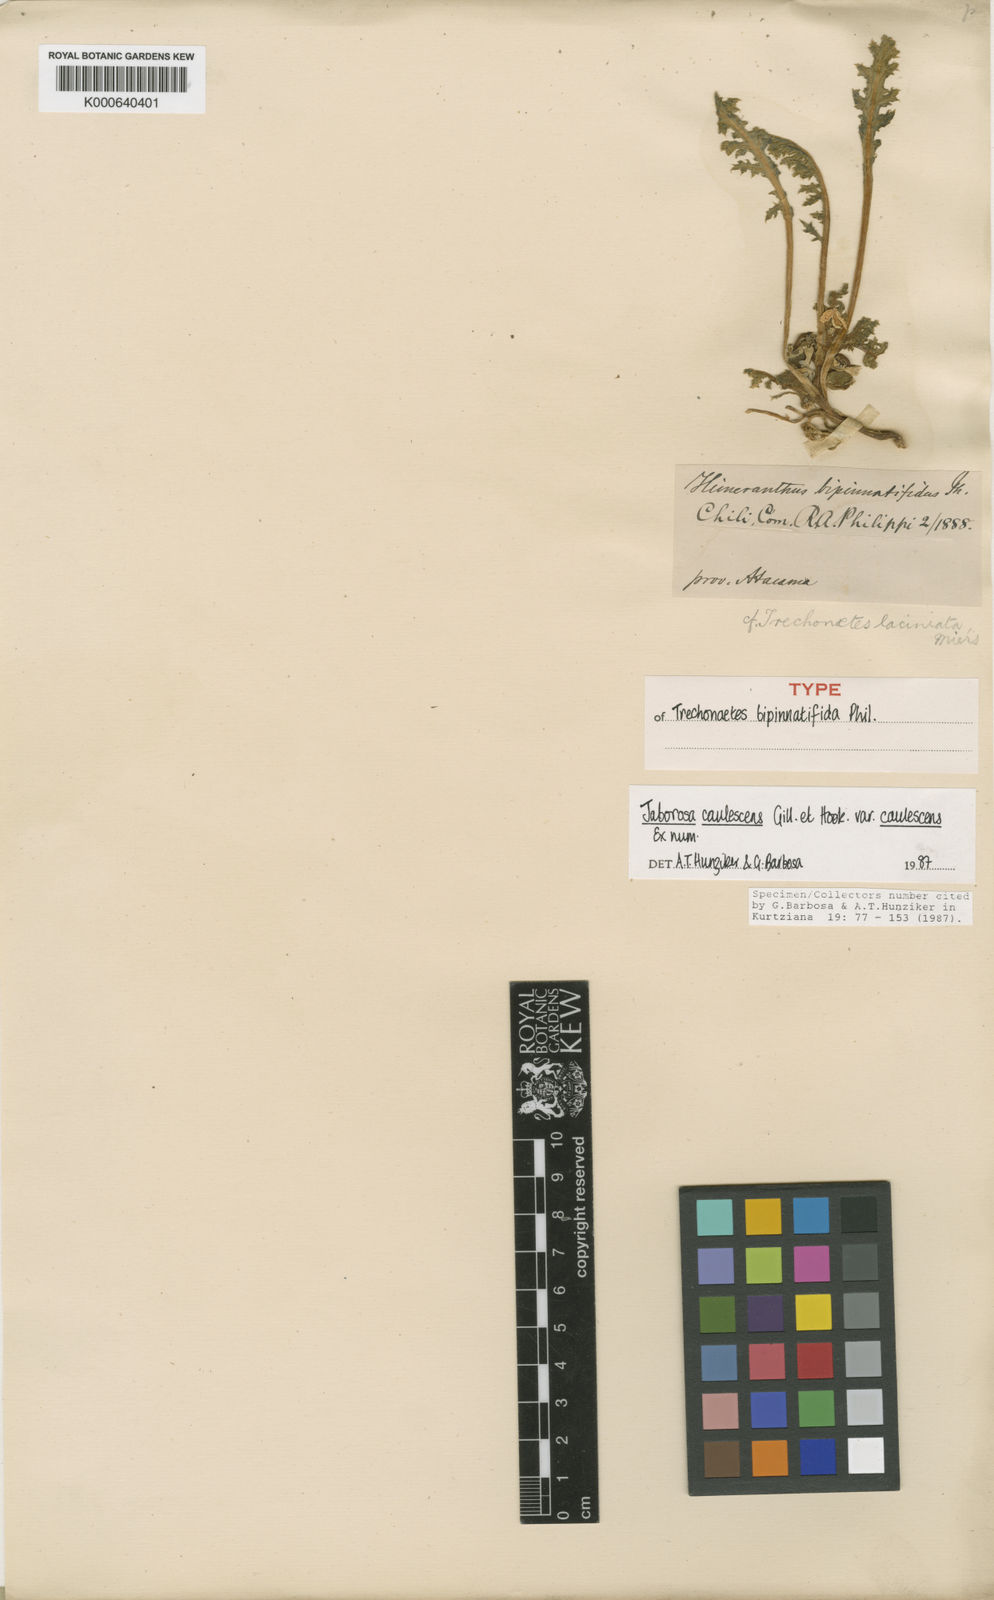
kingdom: Plantae
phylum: Tracheophyta
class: Magnoliopsida
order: Solanales
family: Solanaceae
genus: Jaborosa
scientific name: Jaborosa caulescens
